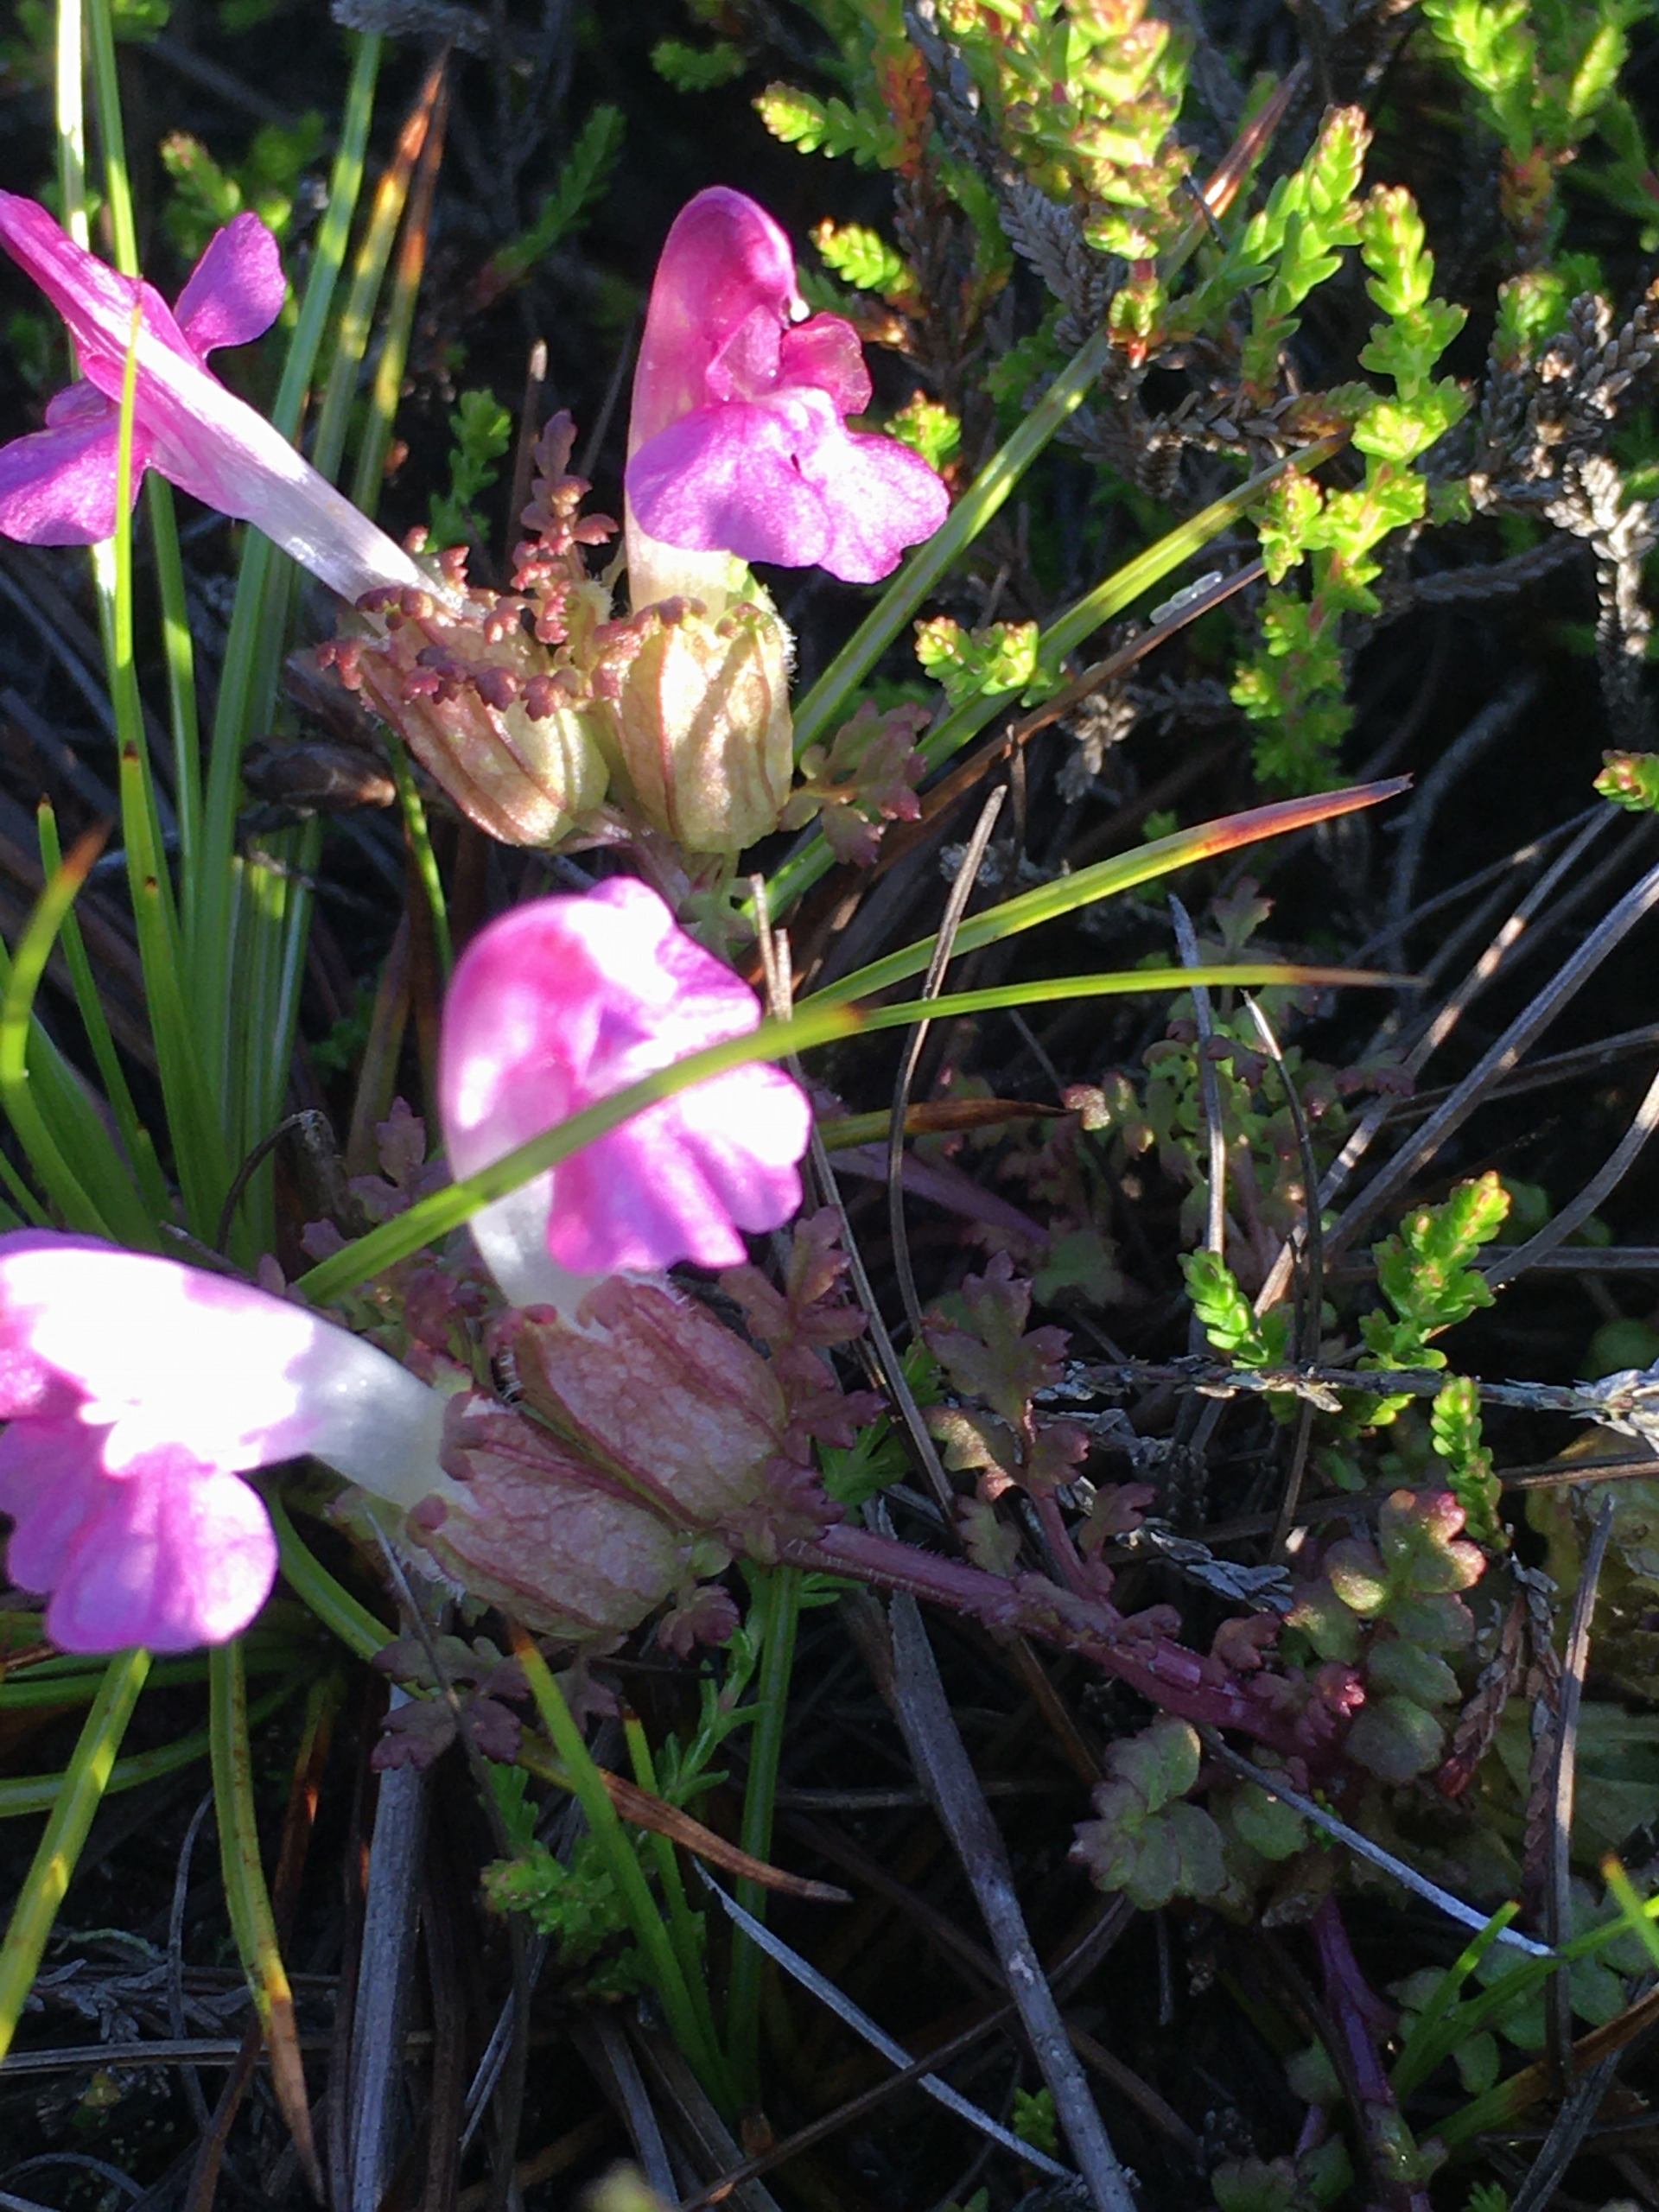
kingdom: Plantae
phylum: Tracheophyta
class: Magnoliopsida
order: Lamiales
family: Orobanchaceae
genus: Pedicularis
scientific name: Pedicularis palustris
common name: Eng-troldurt
